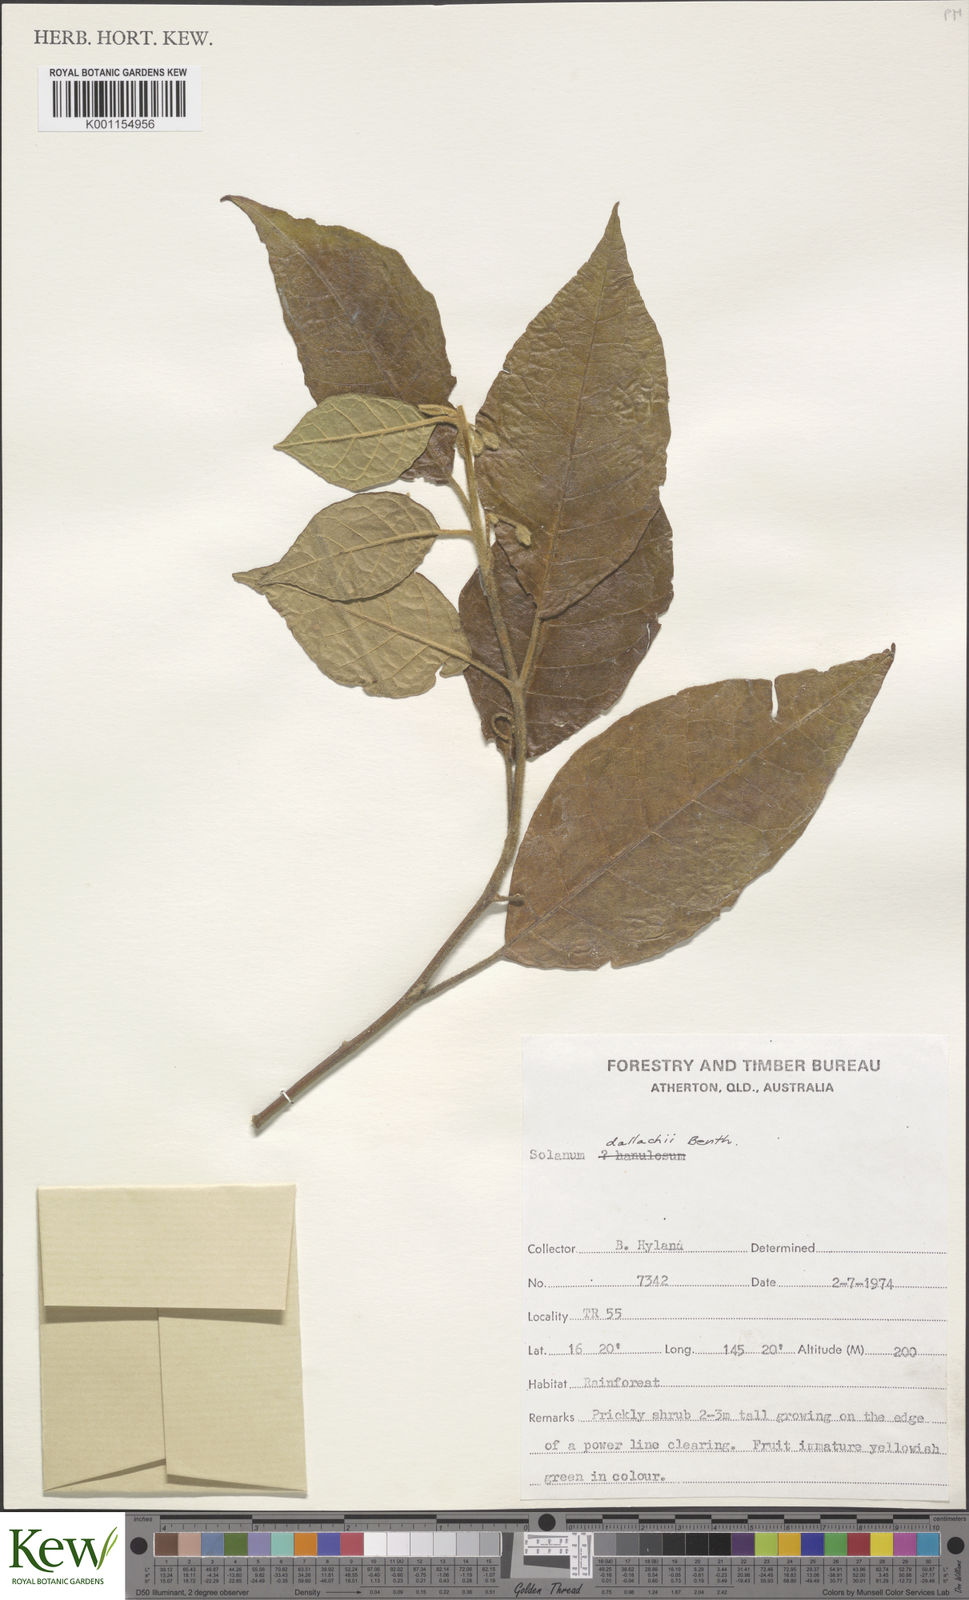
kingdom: Plantae
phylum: Tracheophyta
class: Magnoliopsida
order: Solanales
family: Solanaceae
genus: Solanum
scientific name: Solanum magnifolium
